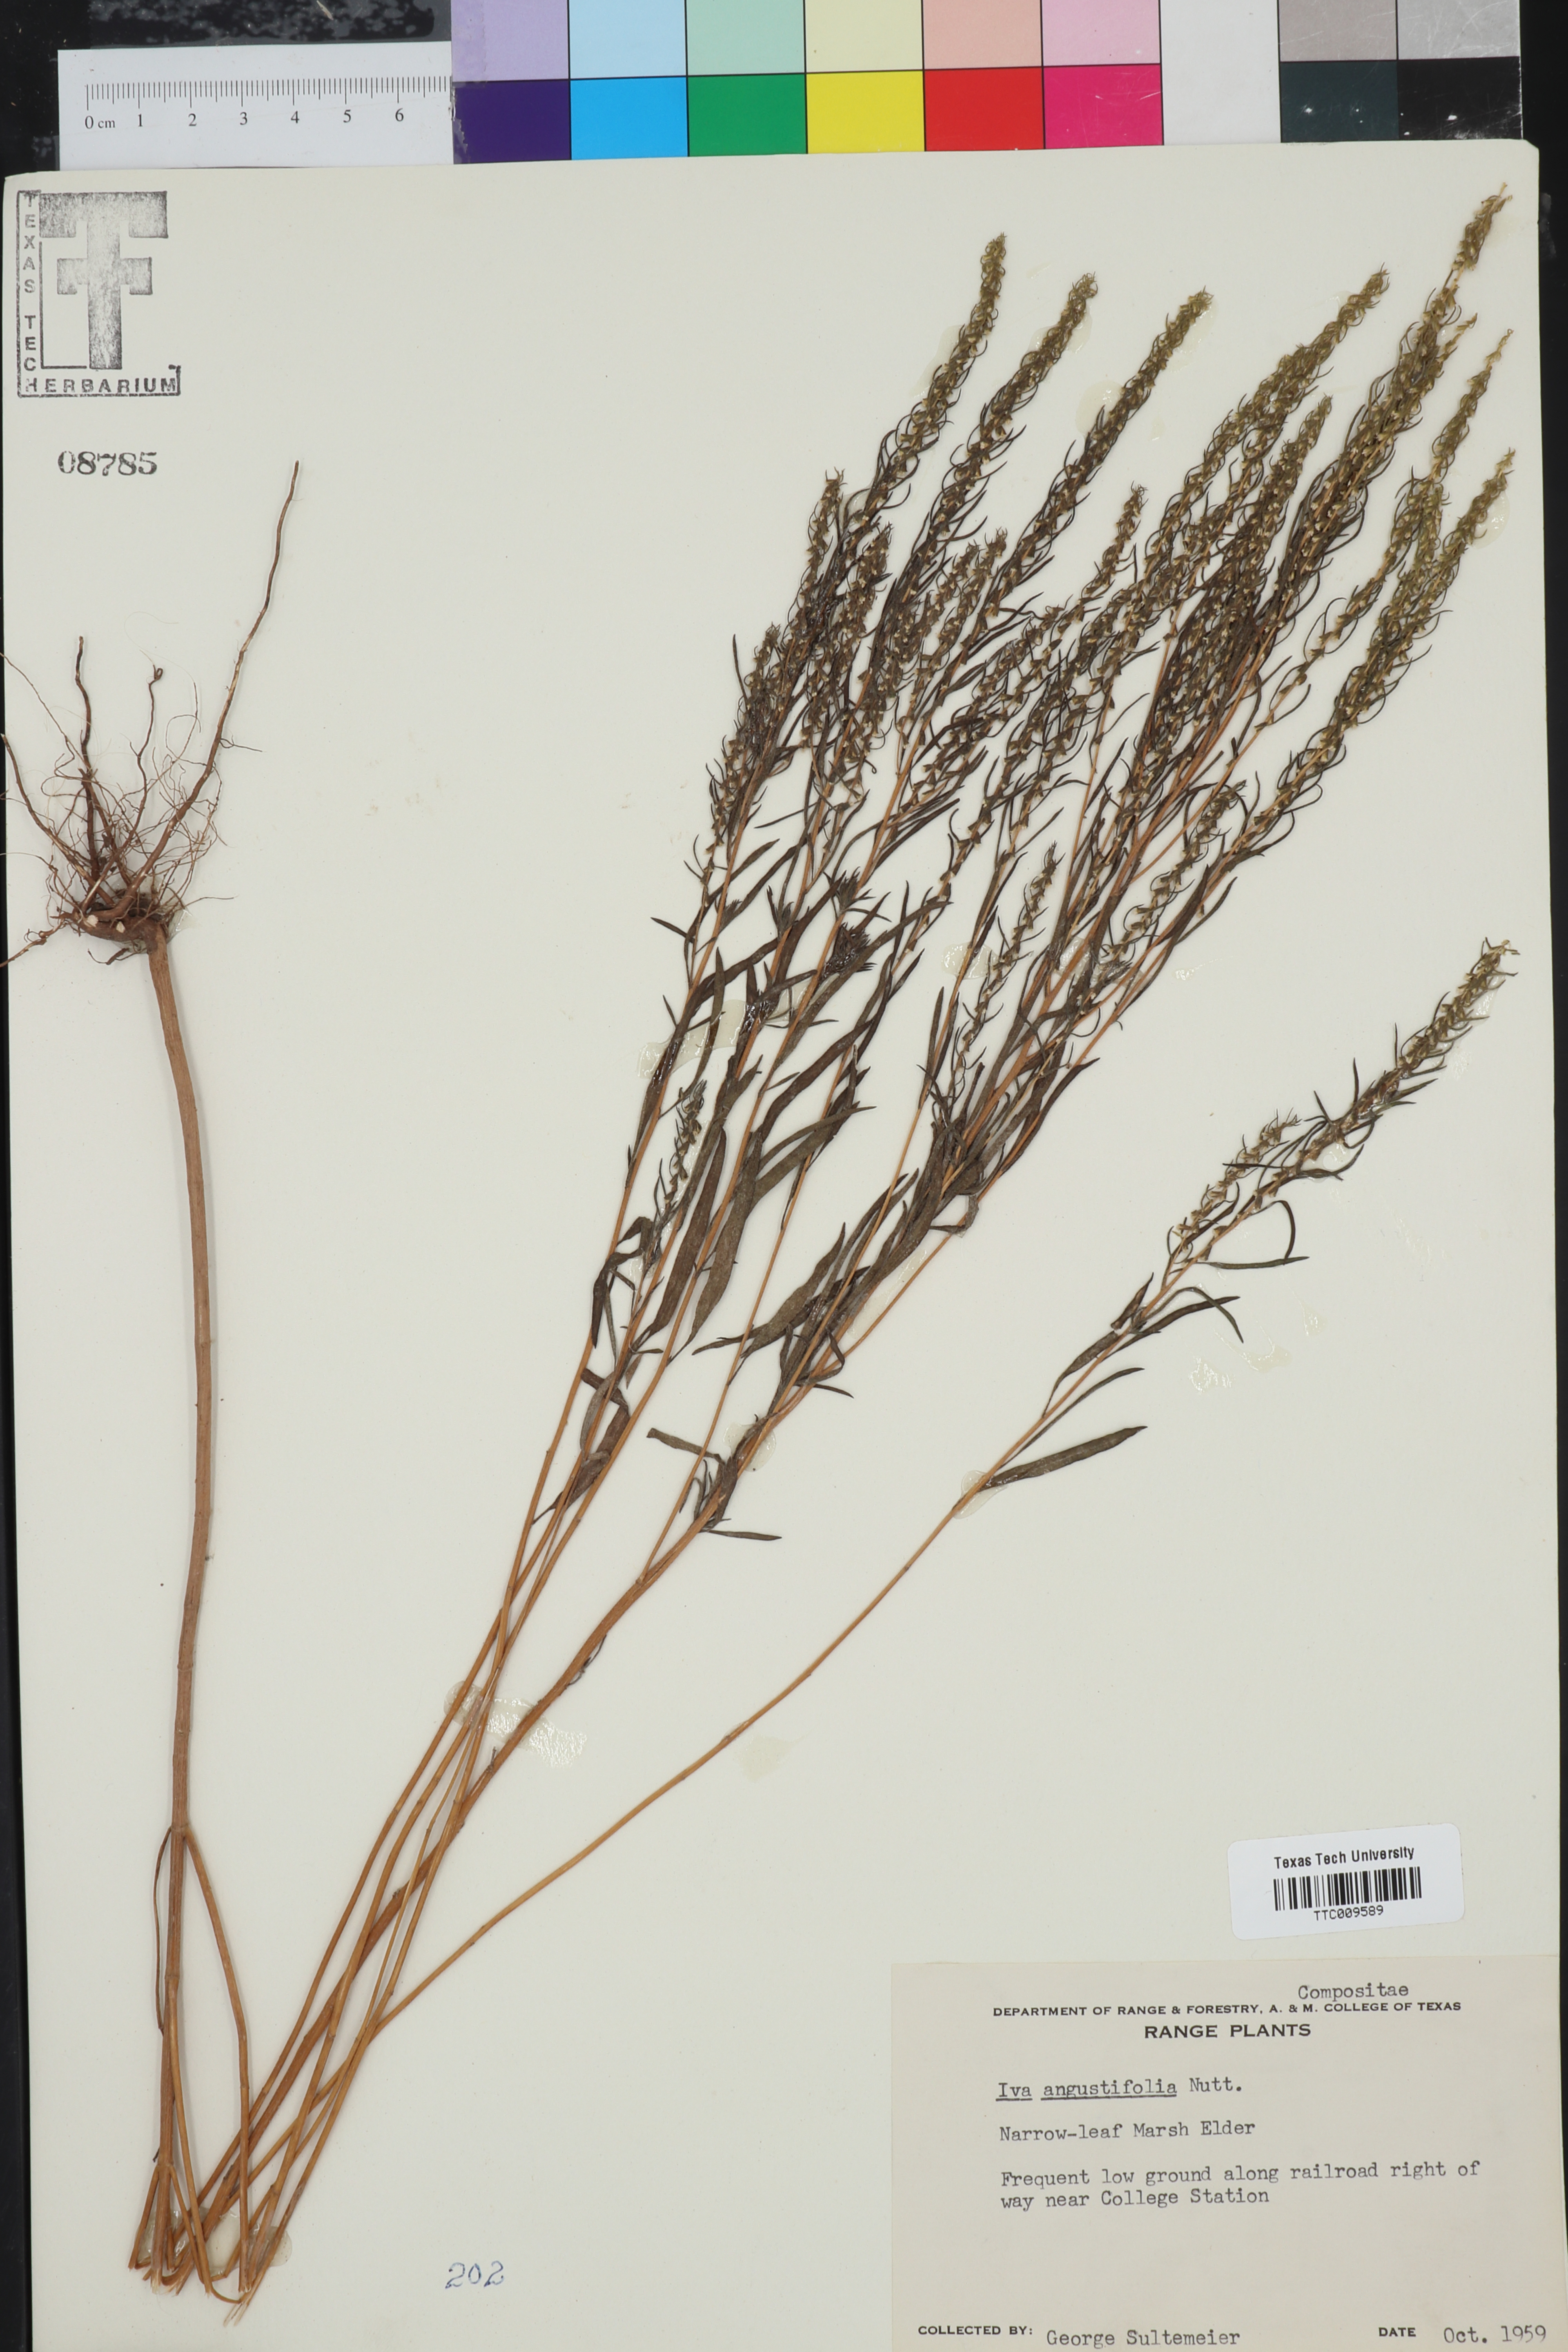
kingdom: Plantae
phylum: Tracheophyta
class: Magnoliopsida
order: Asterales
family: Asteraceae
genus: Iva
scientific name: Iva asperifolia
